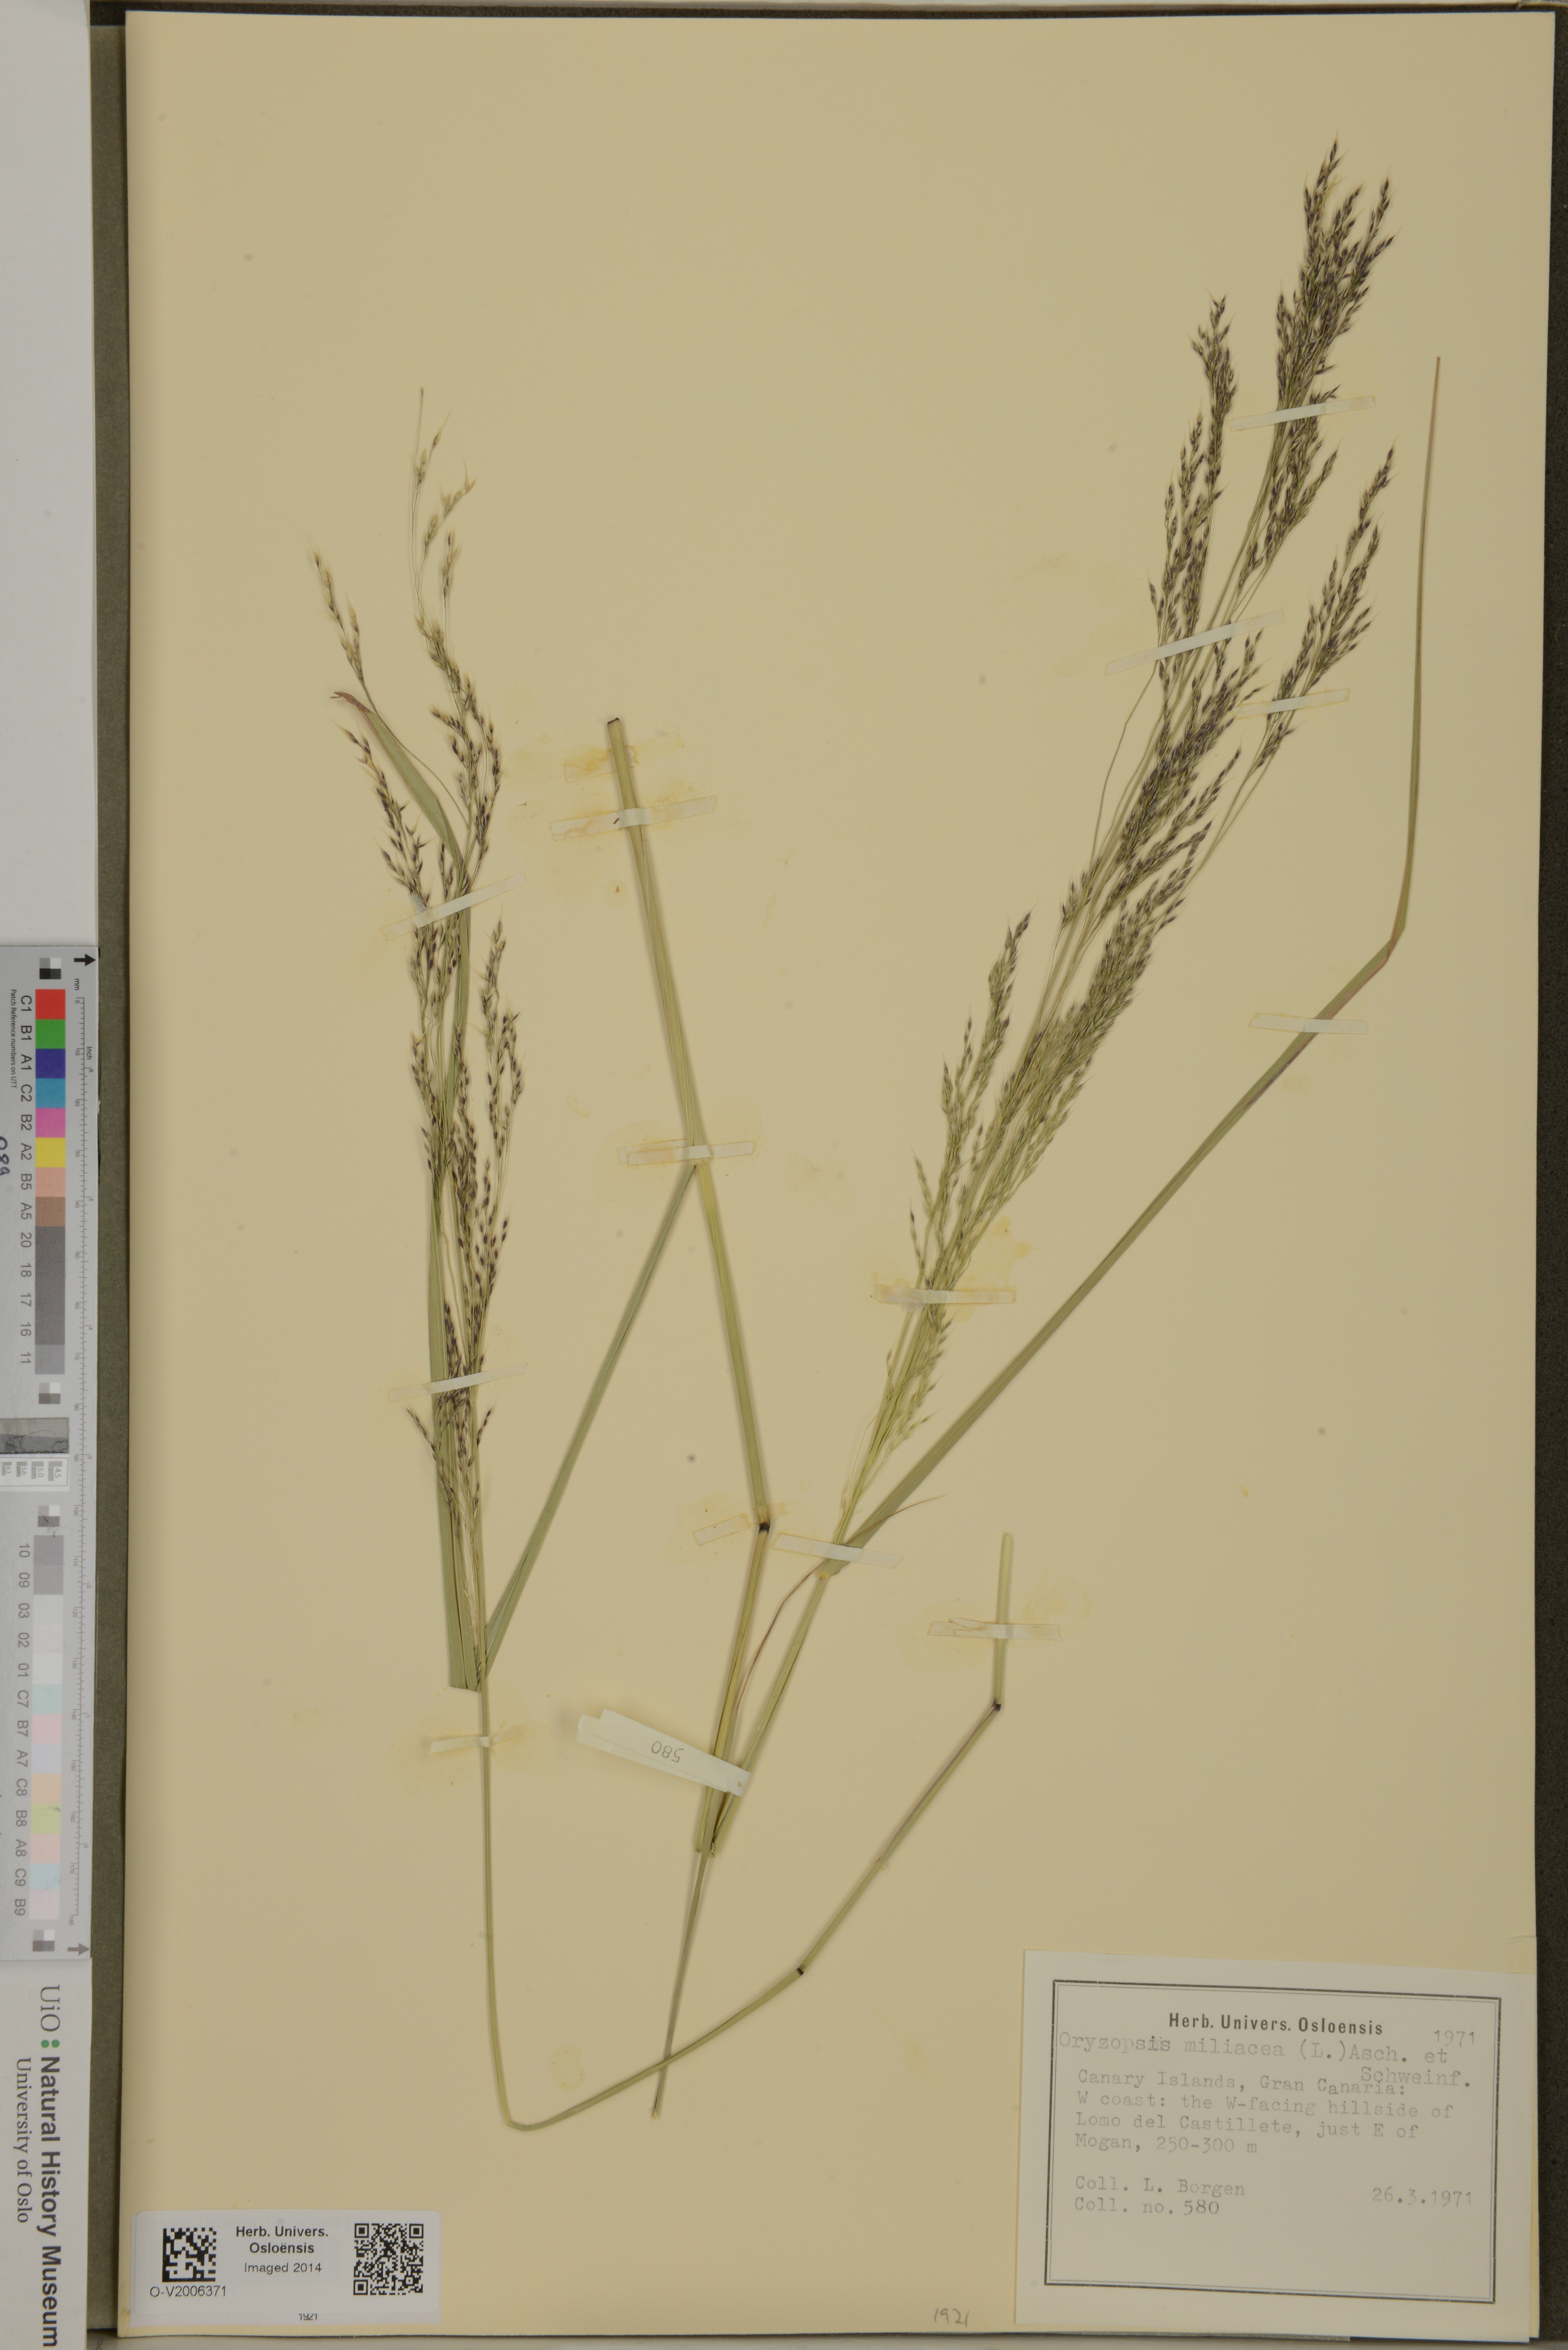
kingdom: Plantae
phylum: Tracheophyta
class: Liliopsida
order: Poales
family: Poaceae
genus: Oloptum
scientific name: Oloptum miliaceum
